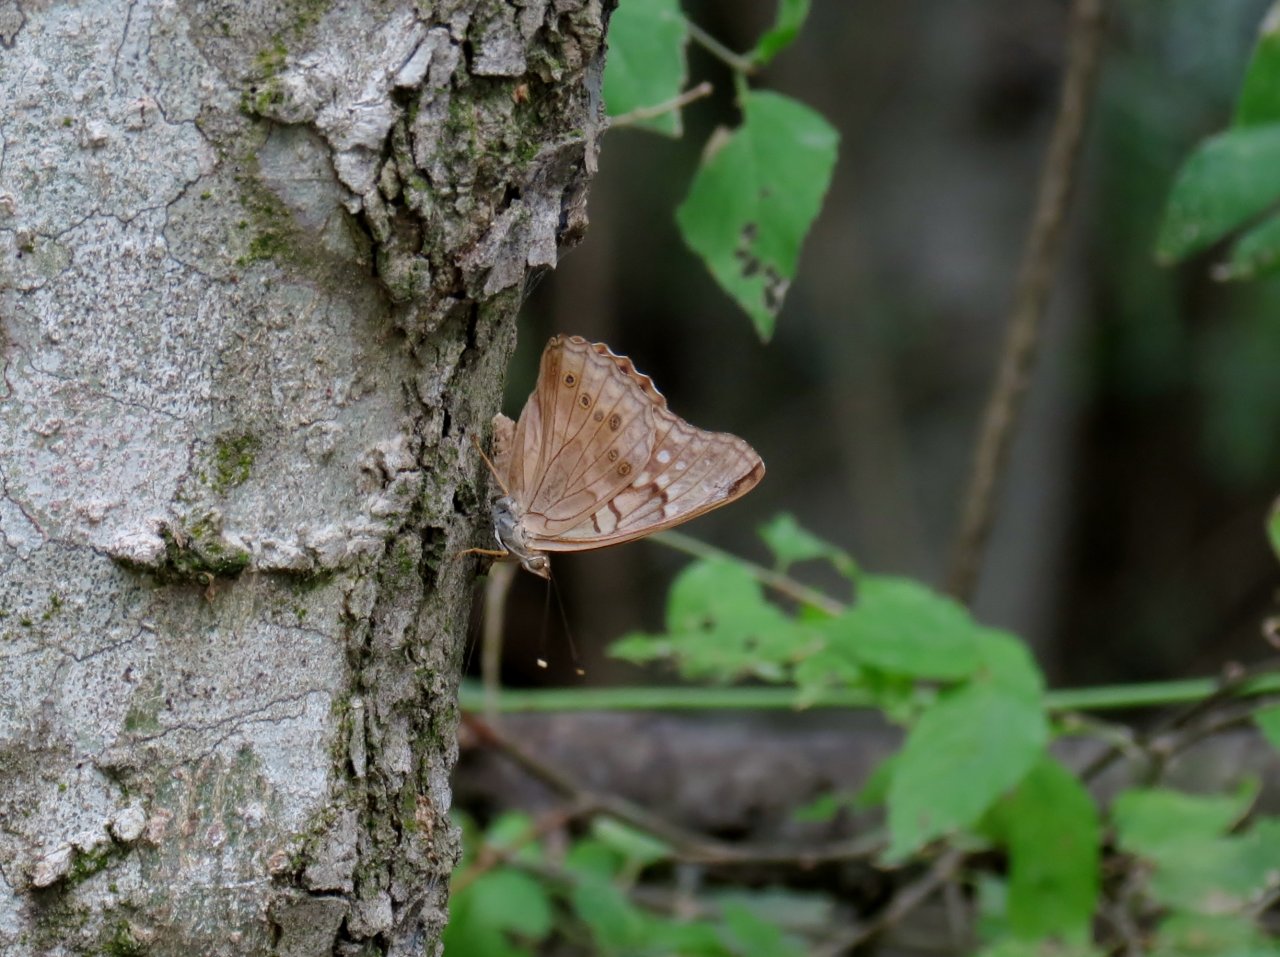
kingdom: Animalia
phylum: Arthropoda
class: Insecta
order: Lepidoptera
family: Nymphalidae
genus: Asterocampa
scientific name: Asterocampa clyton
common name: Tawny Emperor
